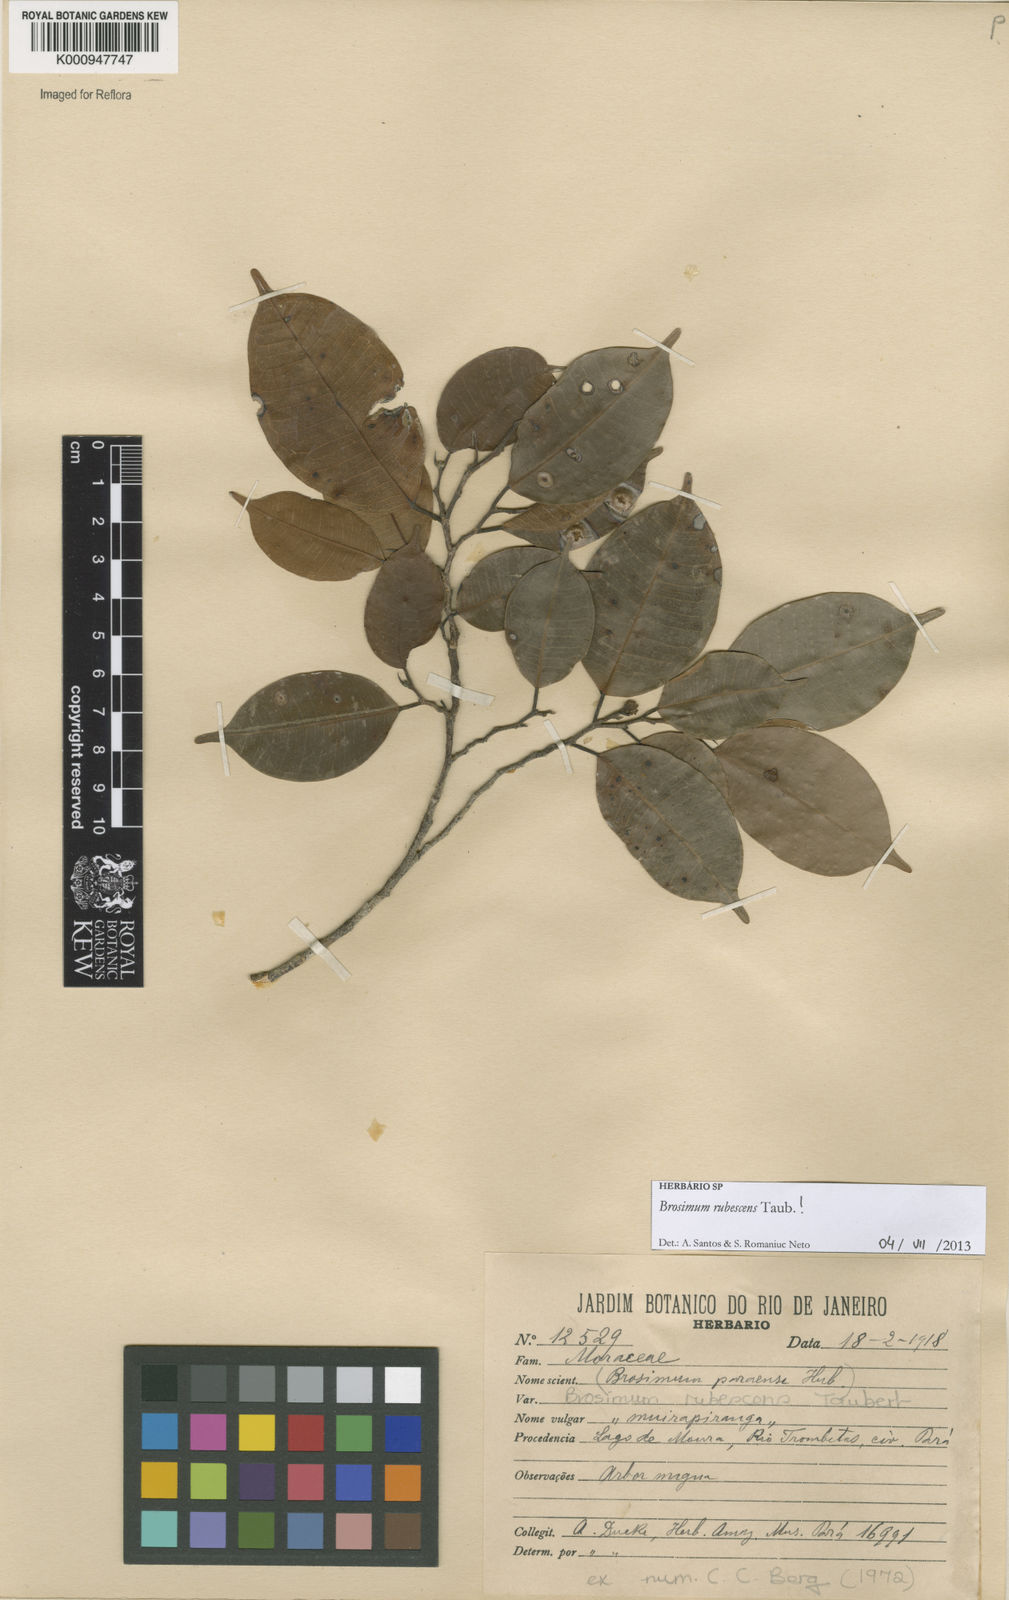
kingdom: Plantae
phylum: Tracheophyta
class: Magnoliopsida
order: Rosales
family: Moraceae
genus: Brosimum
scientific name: Brosimum rubescens
